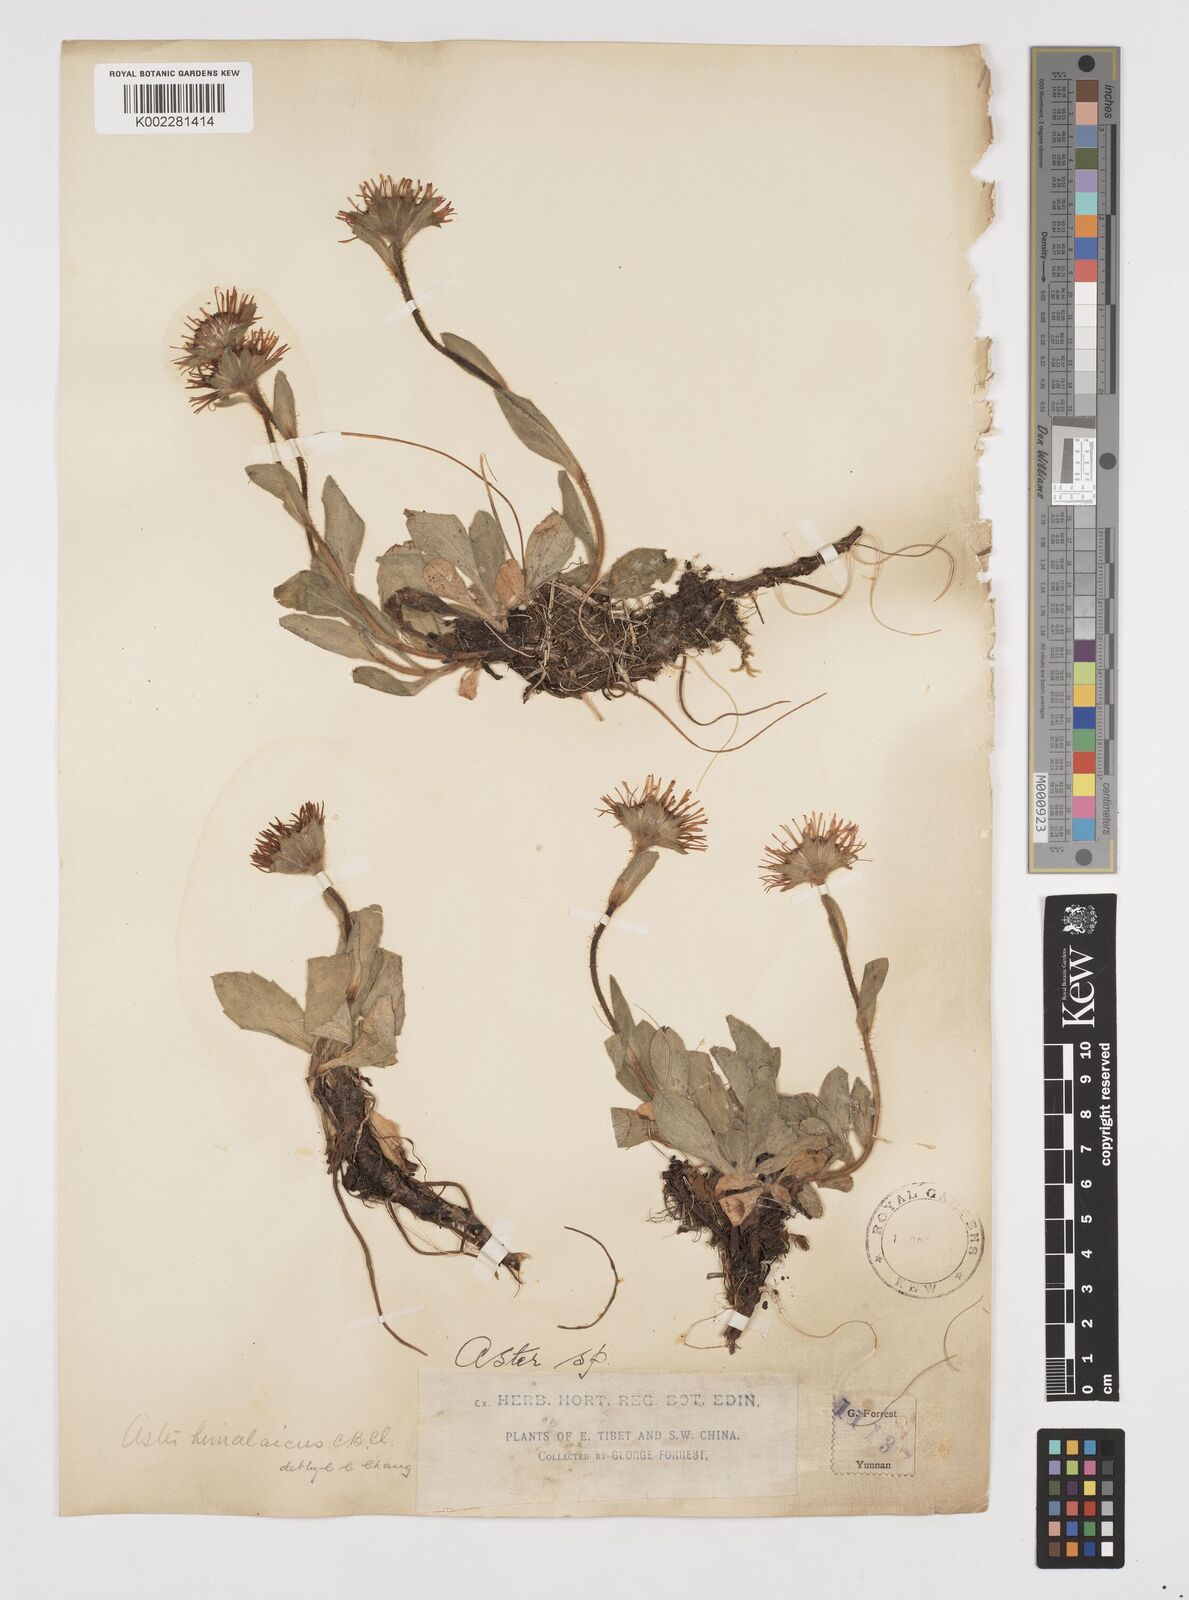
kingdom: Plantae
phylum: Tracheophyta
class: Magnoliopsida
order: Asterales
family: Asteraceae
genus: Tibetiodes
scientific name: Tibetiodes himalaica
